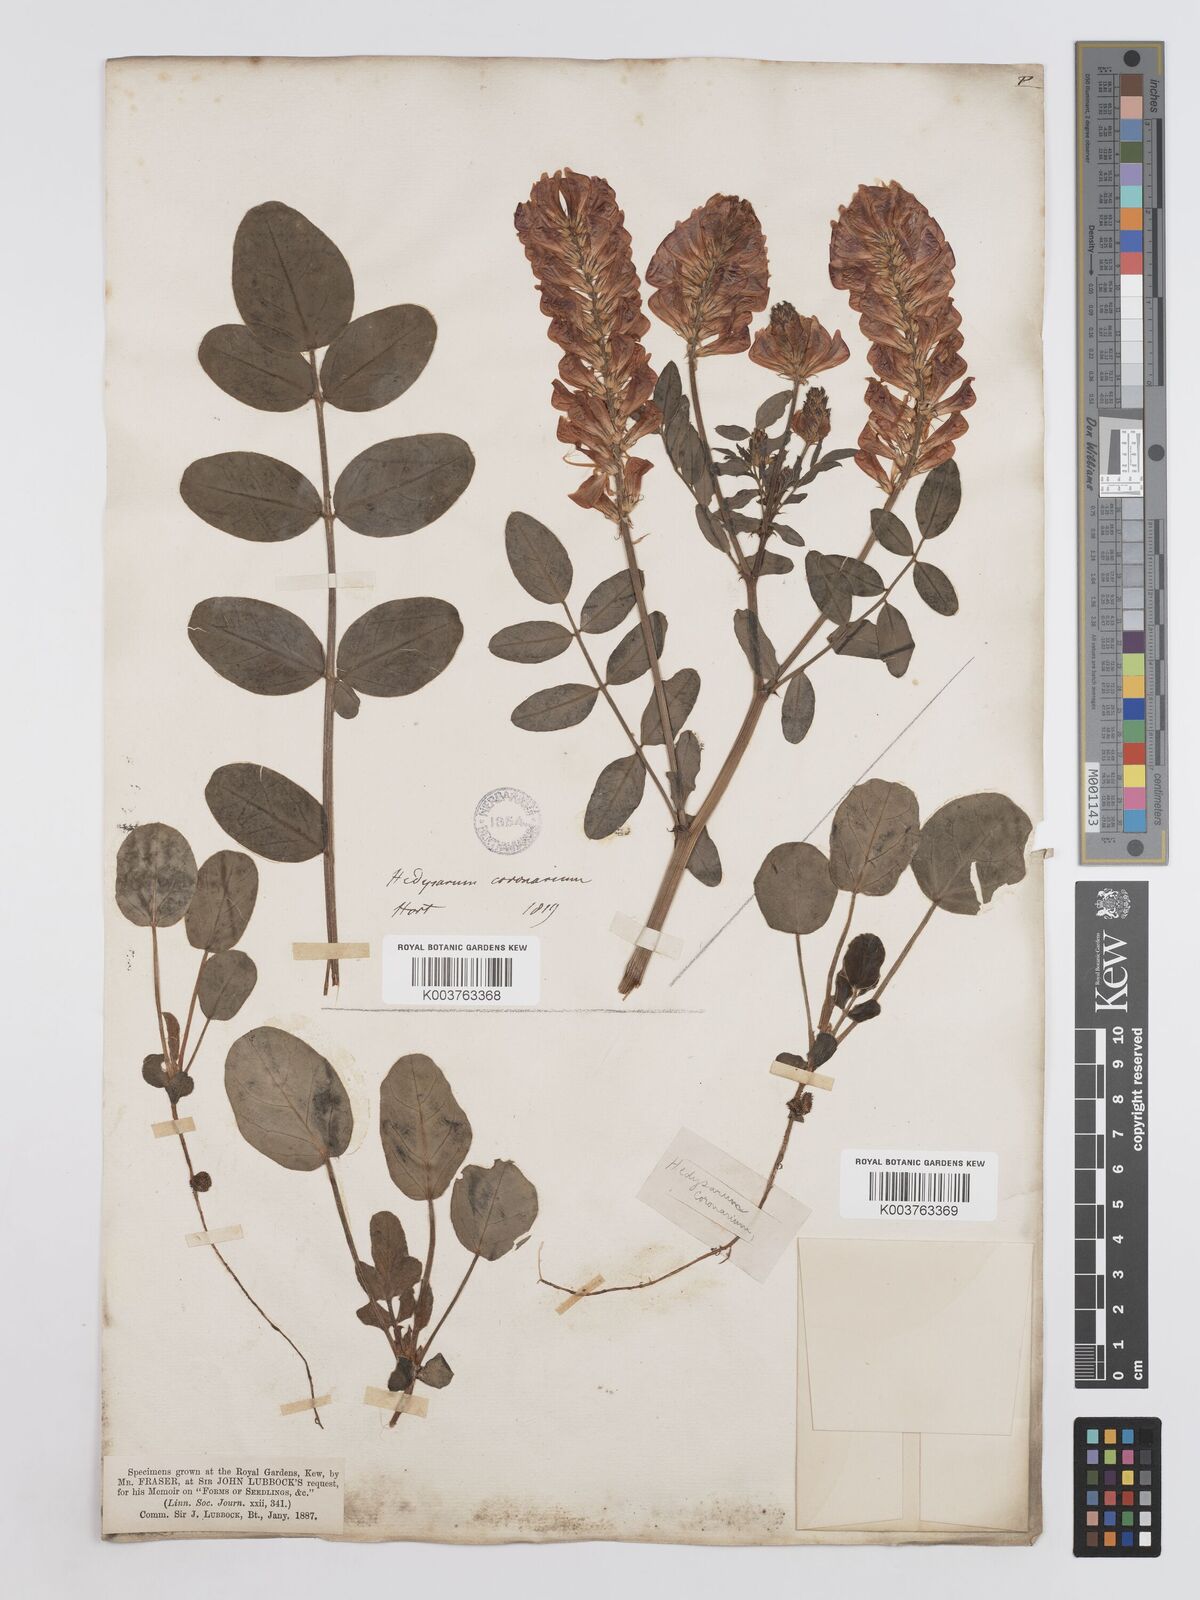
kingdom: Plantae
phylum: Tracheophyta
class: Magnoliopsida
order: Fabales
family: Fabaceae
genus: Sulla
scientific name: Sulla coronaria
